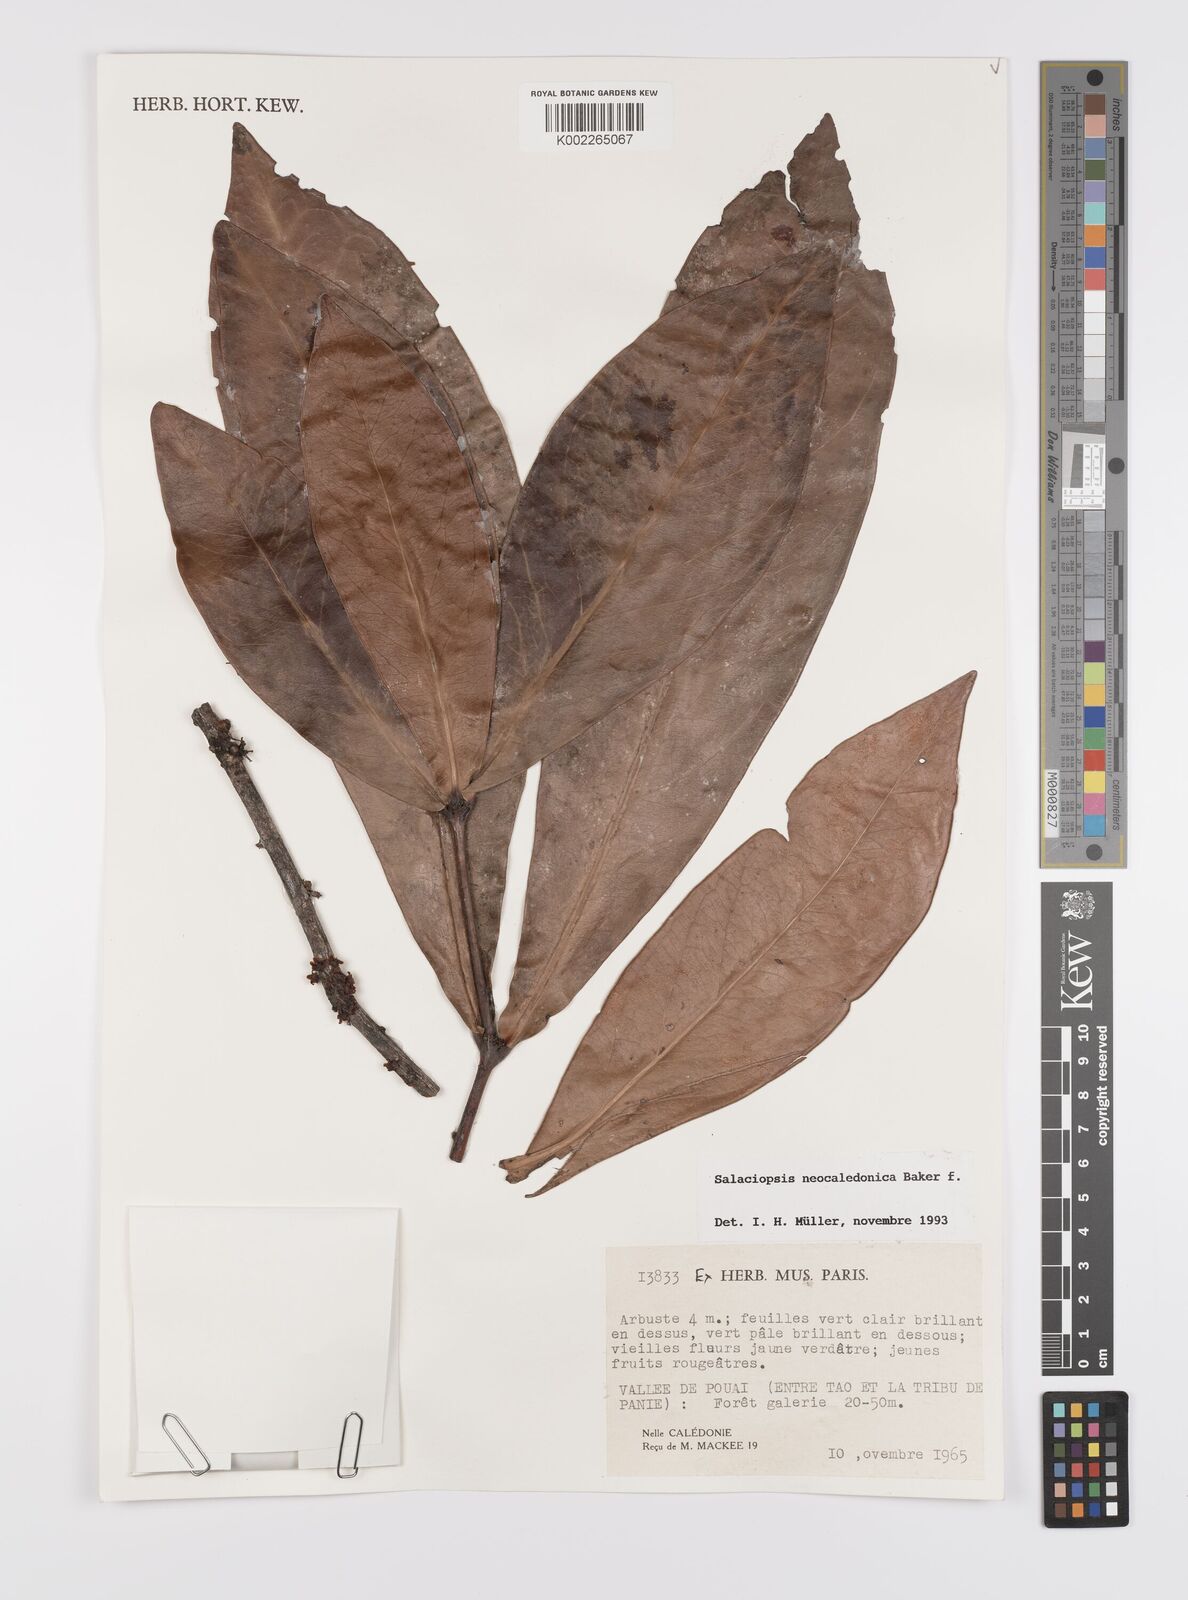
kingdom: Plantae
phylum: Tracheophyta
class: Magnoliopsida
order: Celastrales
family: Celastraceae
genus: Salaciopsis
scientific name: Salaciopsis neocaledonica
